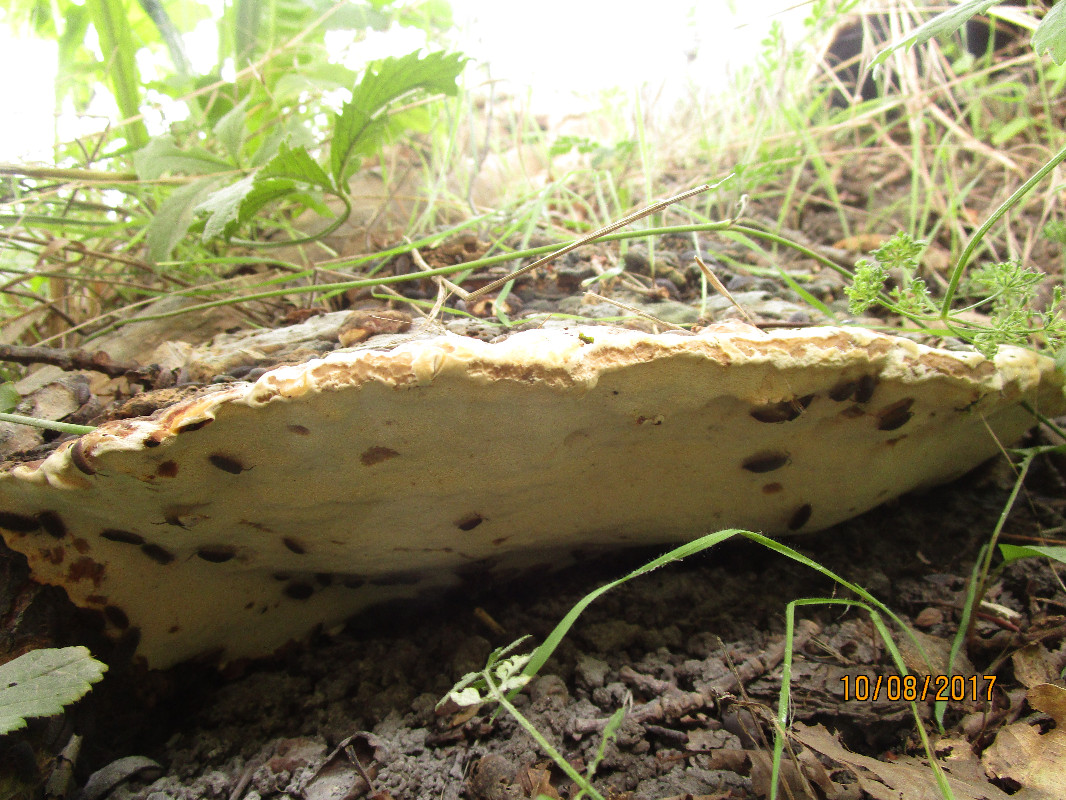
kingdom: Fungi
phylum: Basidiomycota
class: Agaricomycetes
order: Polyporales
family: Polyporaceae
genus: Vanderbylia
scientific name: Vanderbylia fraxinea
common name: stor kanelporesvamp
